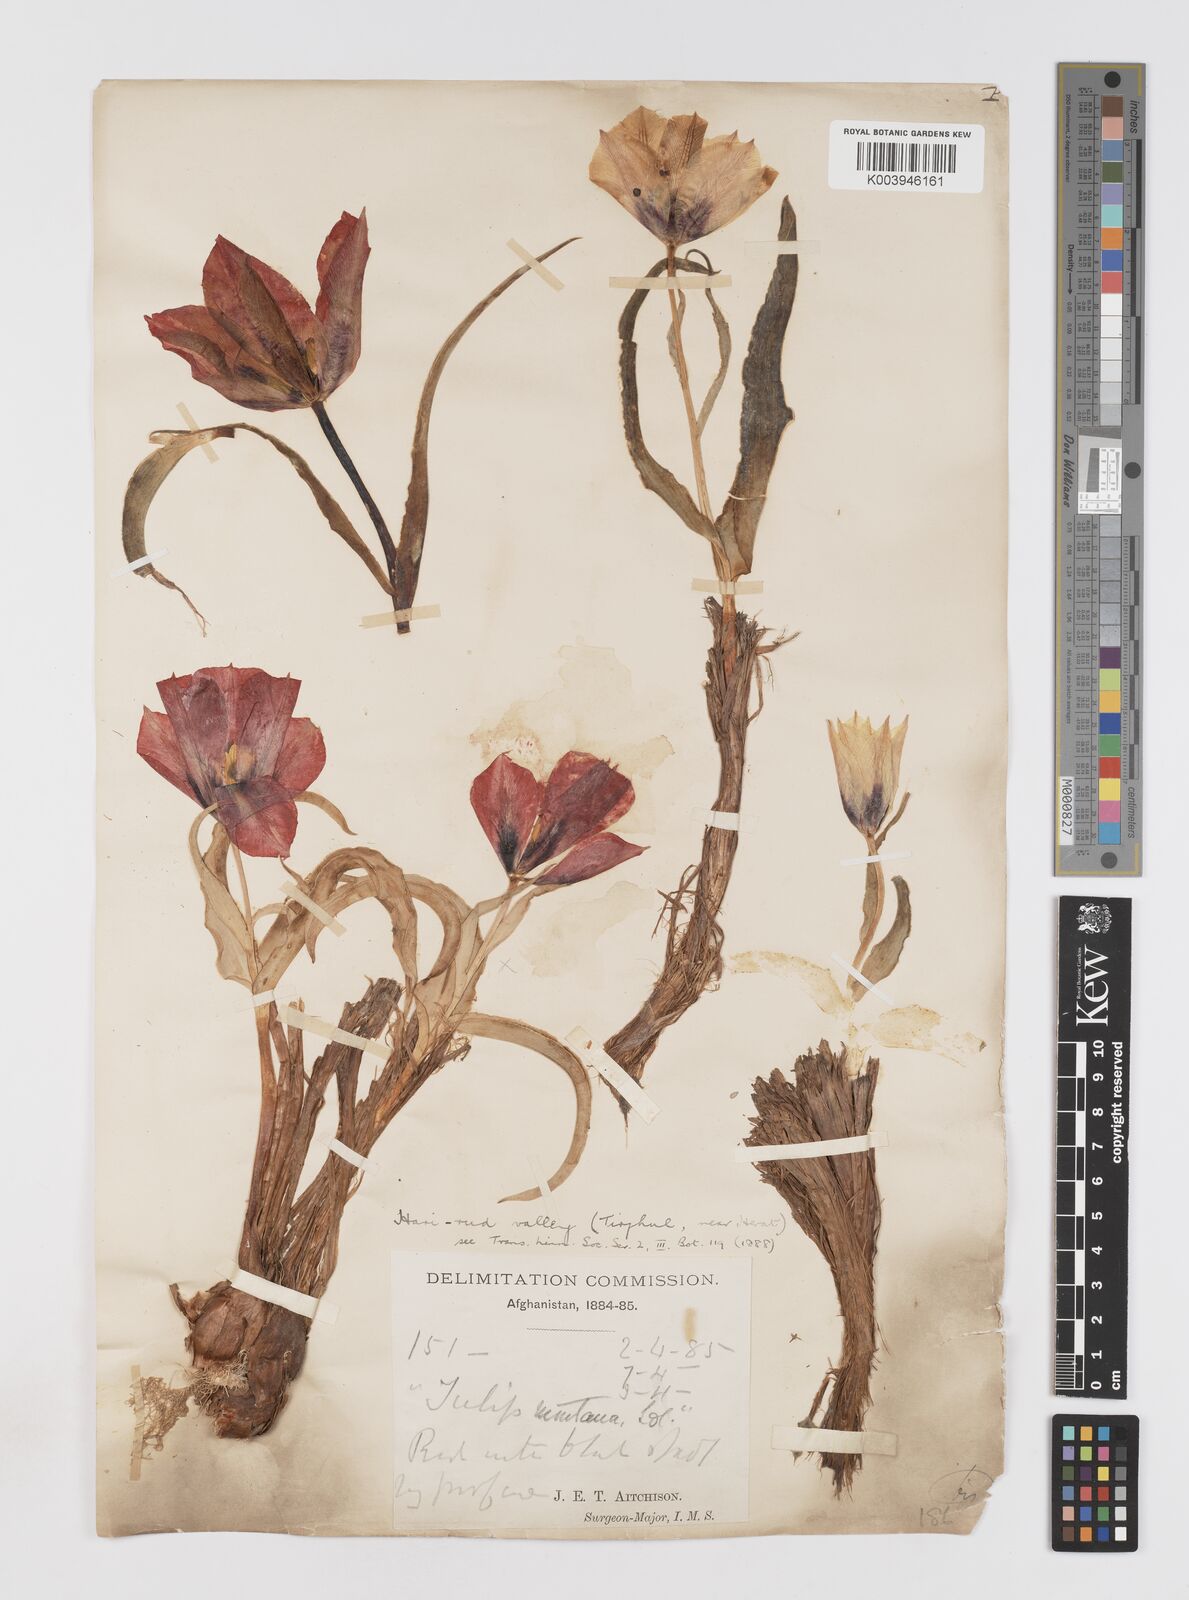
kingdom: Plantae
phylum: Tracheophyta
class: Liliopsida
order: Liliales
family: Liliaceae
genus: Tulipa
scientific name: Tulipa borszczowii
